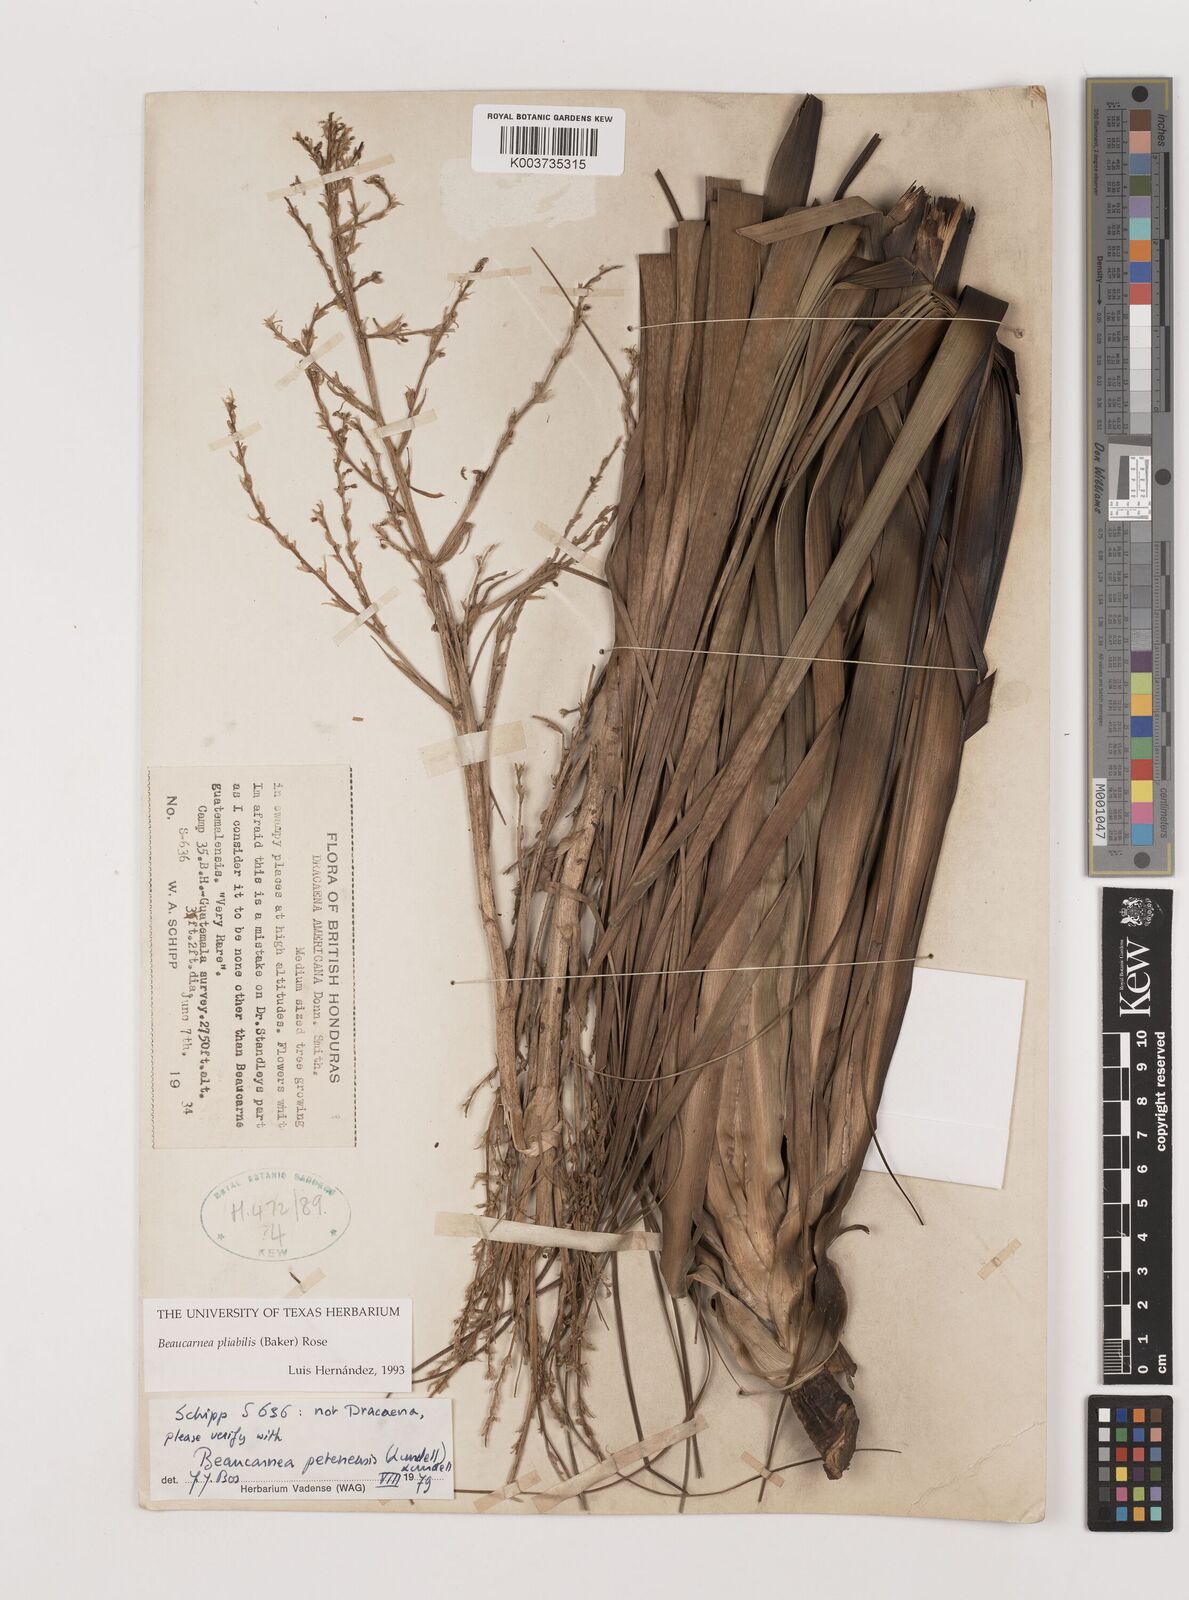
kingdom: Plantae
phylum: Tracheophyta
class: Liliopsida
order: Asparagales
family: Asparagaceae
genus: Beaucarnea
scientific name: Beaucarnea pliabilis
